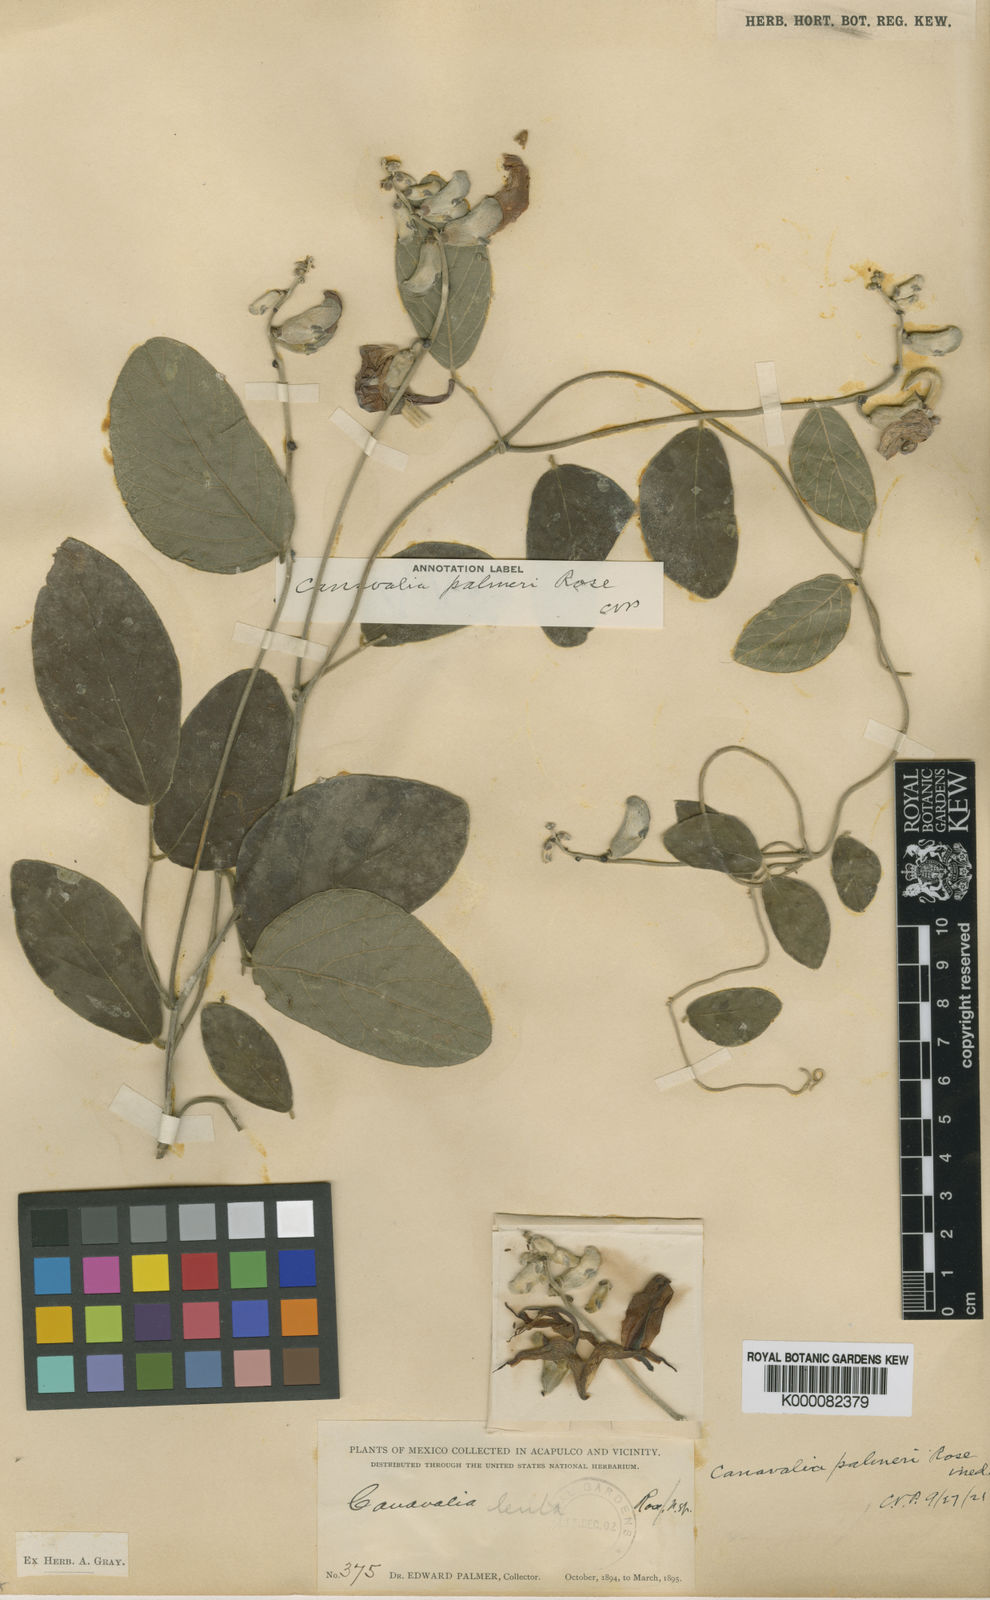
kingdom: Plantae
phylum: Tracheophyta
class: Magnoliopsida
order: Fabales
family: Fabaceae
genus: Canavalia
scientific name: Canavalia palmeri
